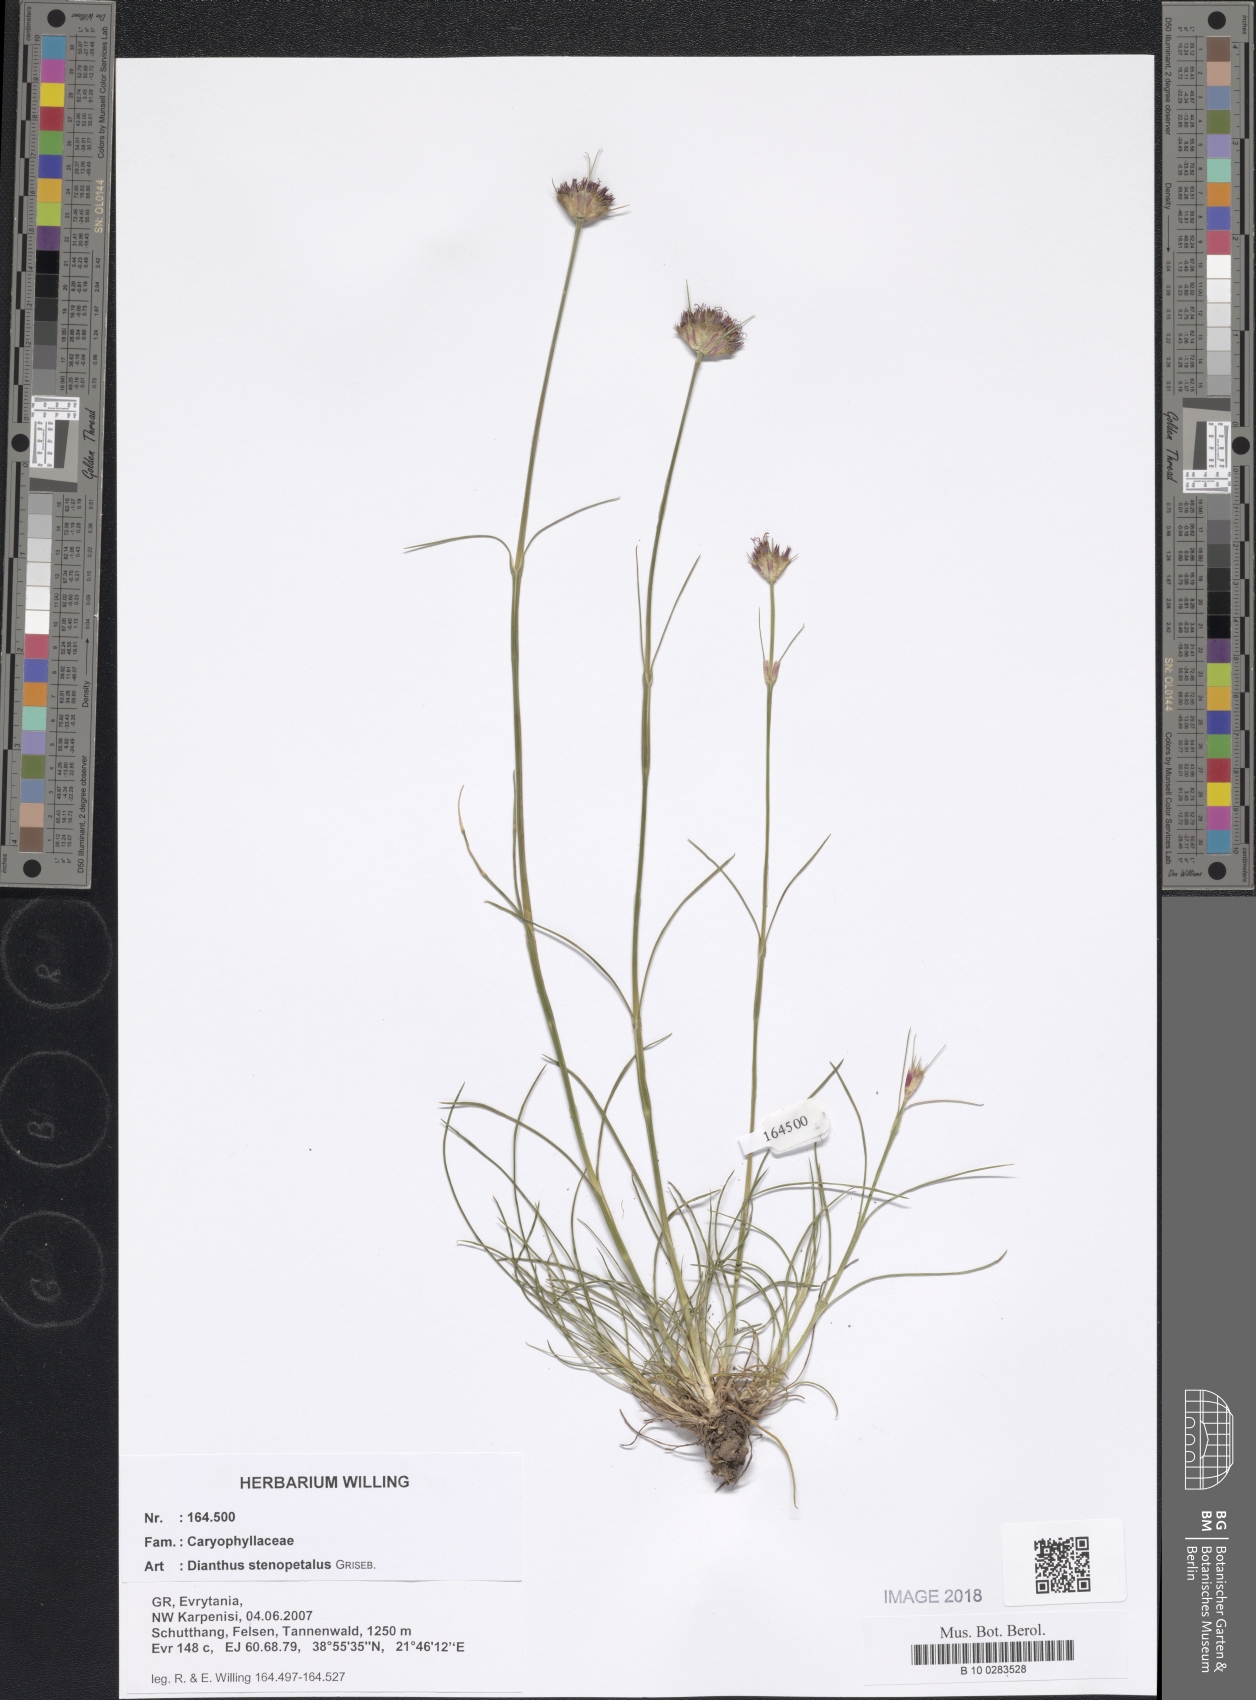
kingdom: Plantae
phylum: Tracheophyta
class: Magnoliopsida
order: Caryophyllales
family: Caryophyllaceae
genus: Dianthus
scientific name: Dianthus stenopetalus
